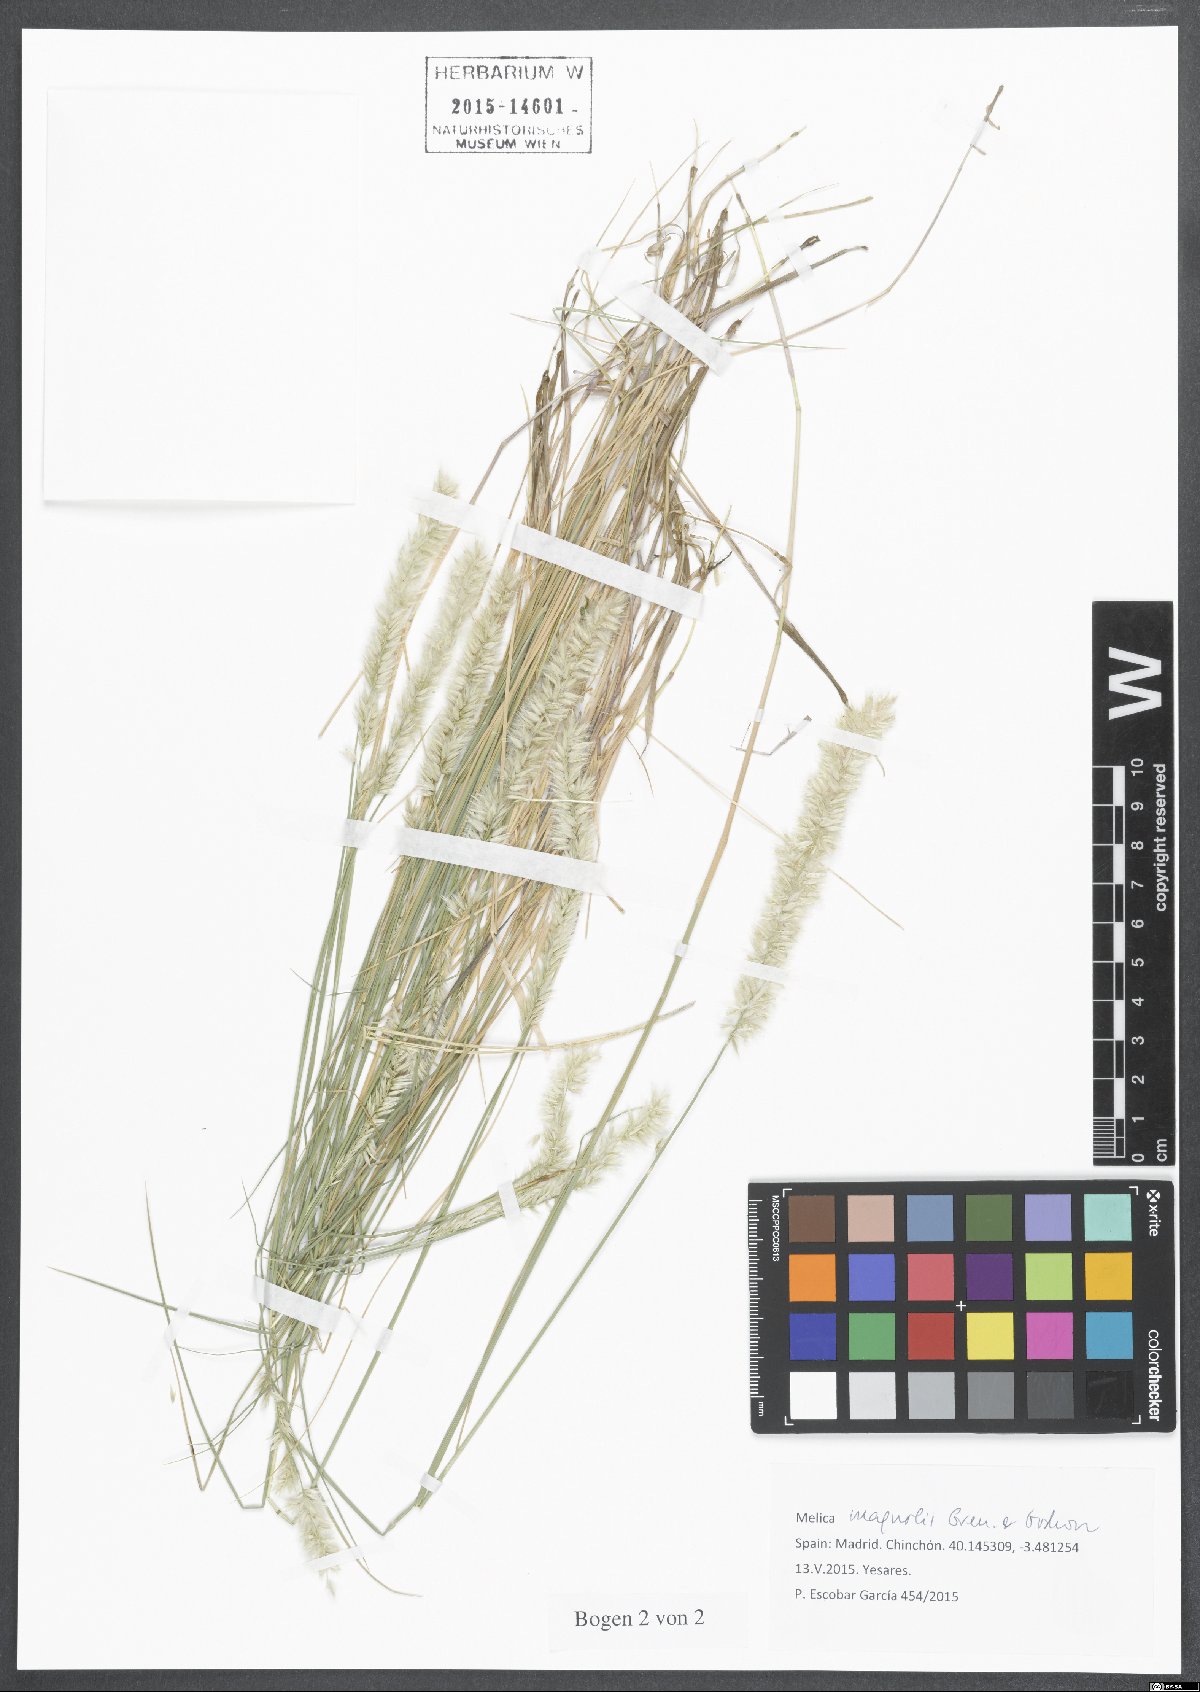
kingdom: Plantae
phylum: Tracheophyta
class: Liliopsida
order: Poales
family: Poaceae
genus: Melica
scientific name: Melica ciliata
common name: Hairy melicgrass
